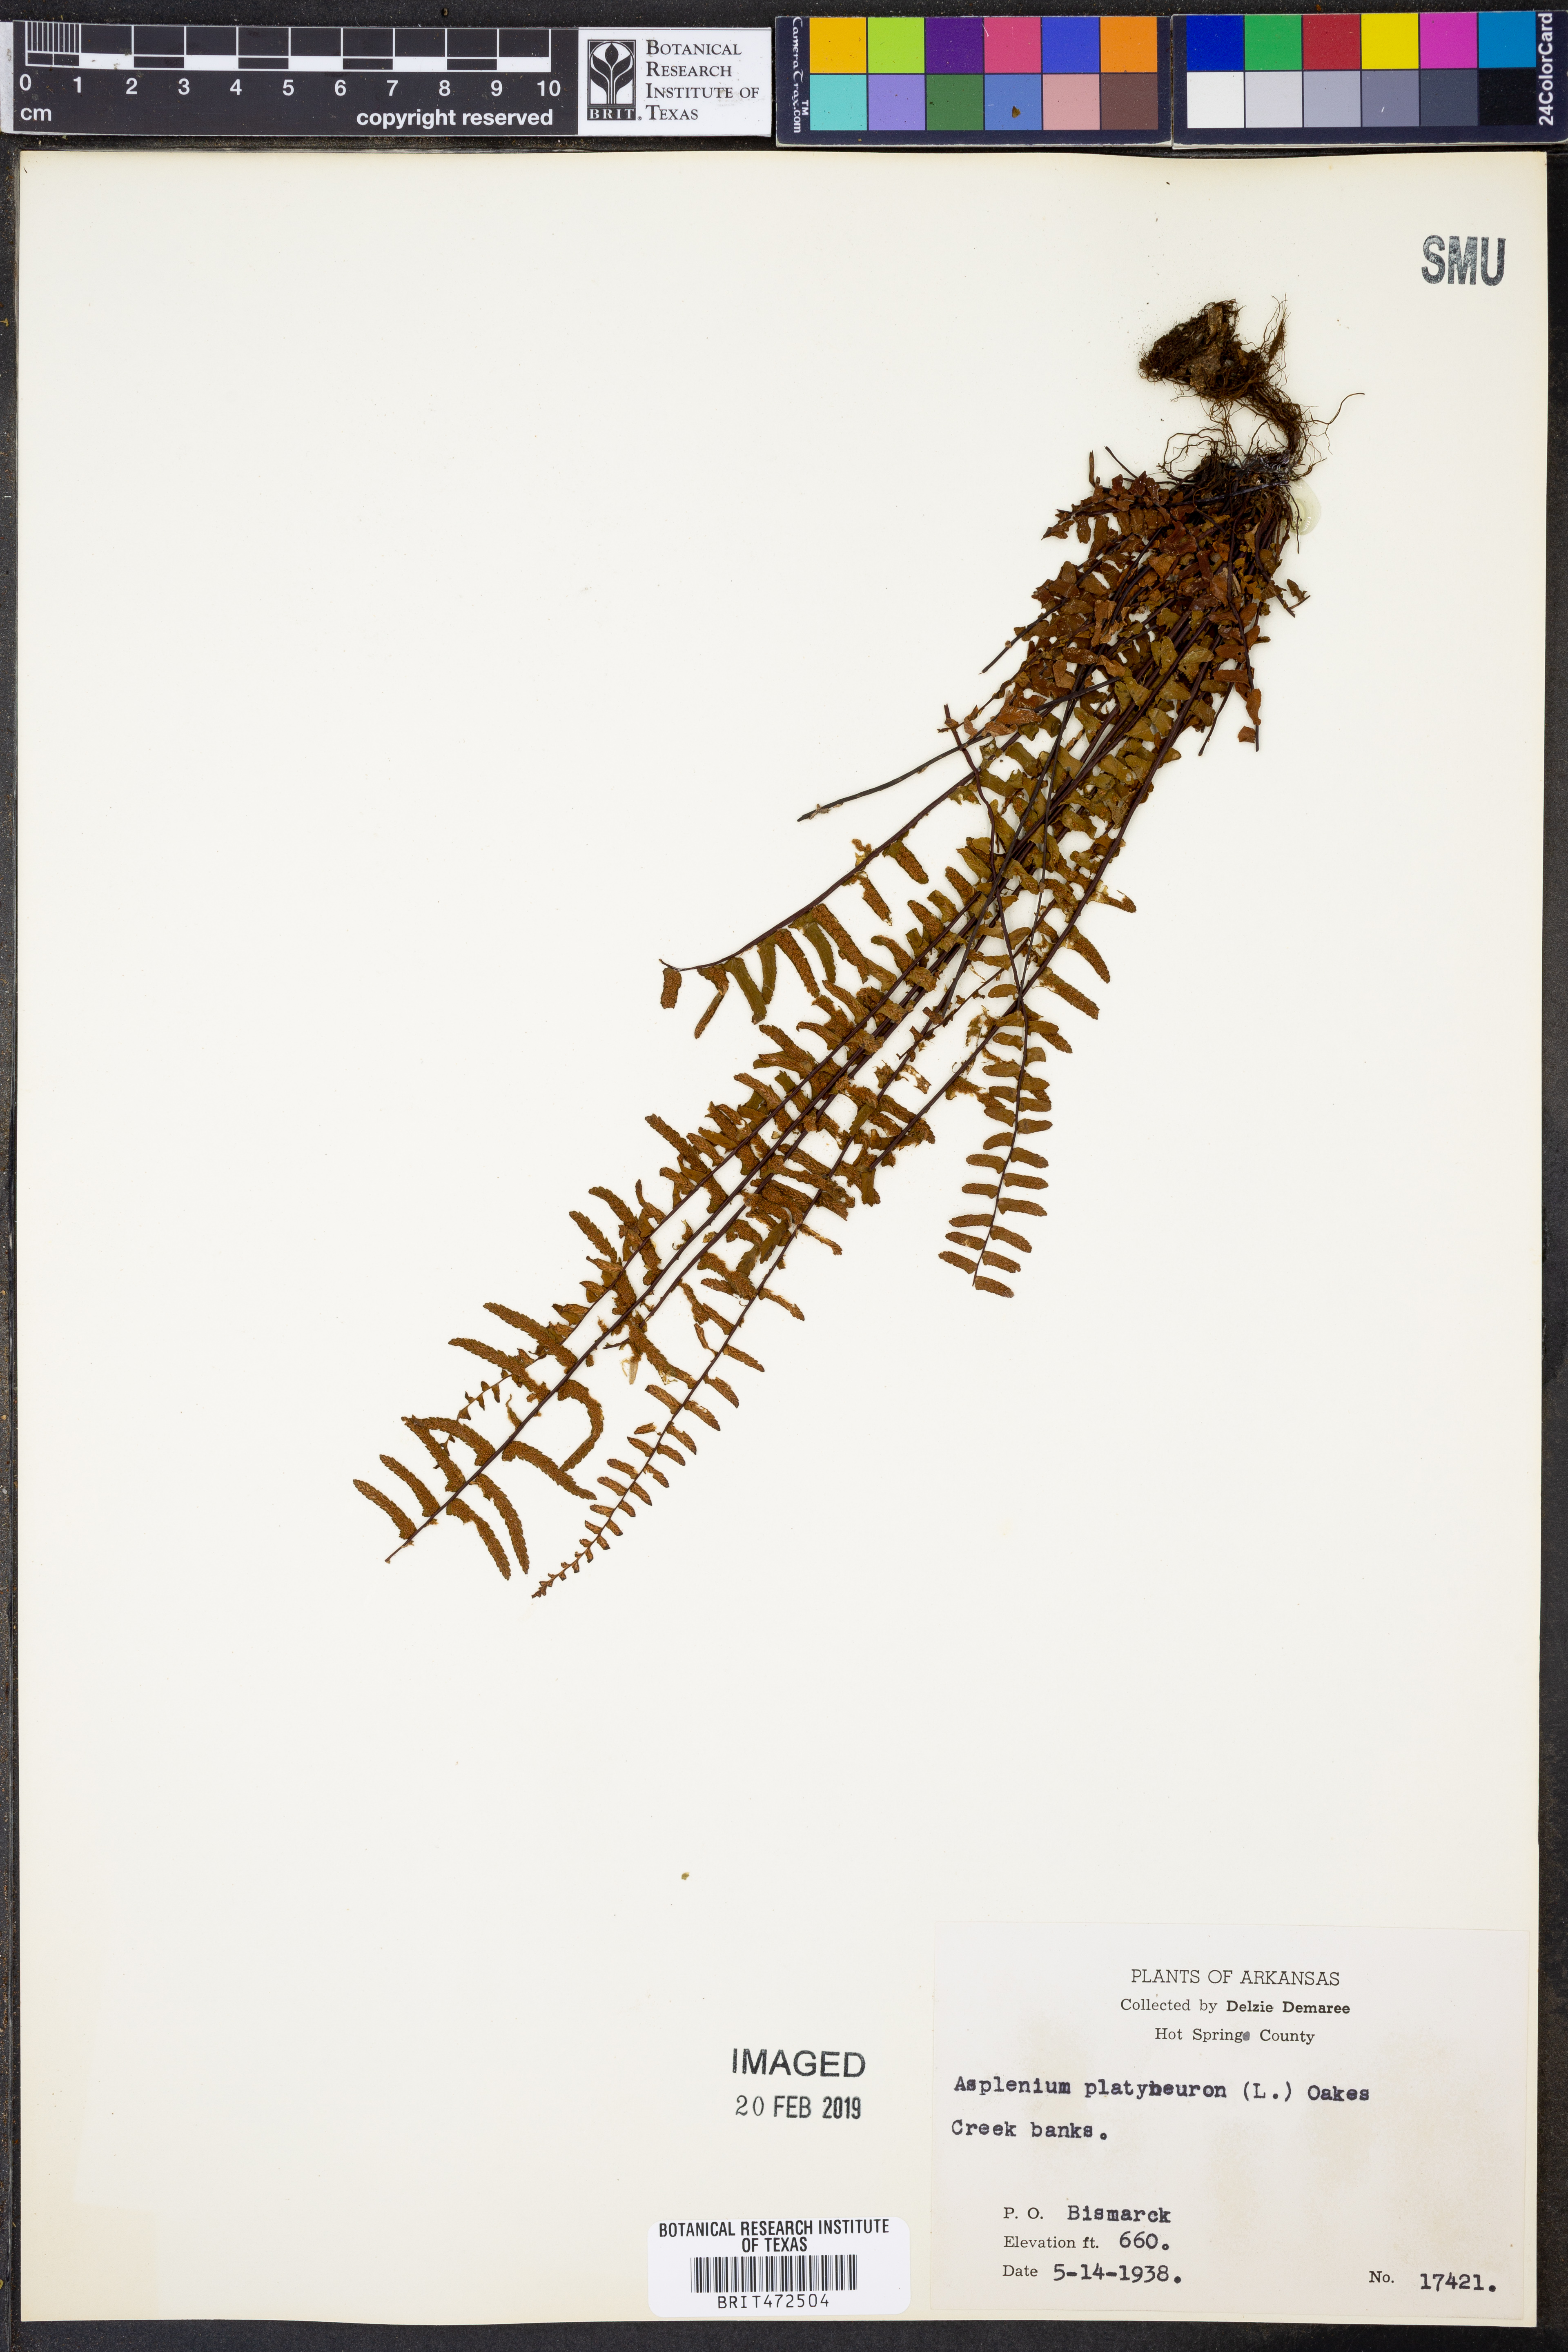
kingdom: Plantae
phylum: Tracheophyta
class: Polypodiopsida
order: Polypodiales
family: Aspleniaceae
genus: Asplenium
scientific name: Asplenium platyneuron
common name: Ebony spleenwort
